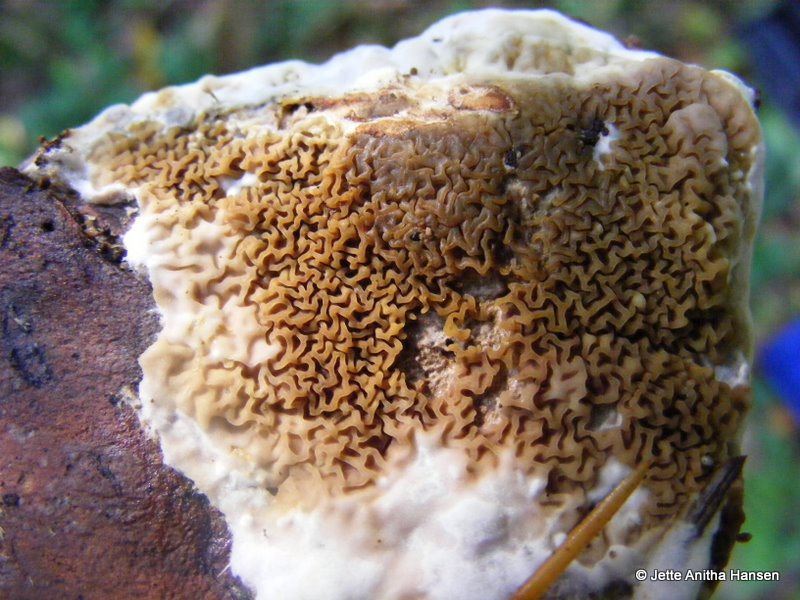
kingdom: Fungi
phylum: Basidiomycota
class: Agaricomycetes
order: Boletales
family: Serpulaceae
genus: Serpula
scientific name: Serpula himantioides
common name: tyndkødet hussvamp
